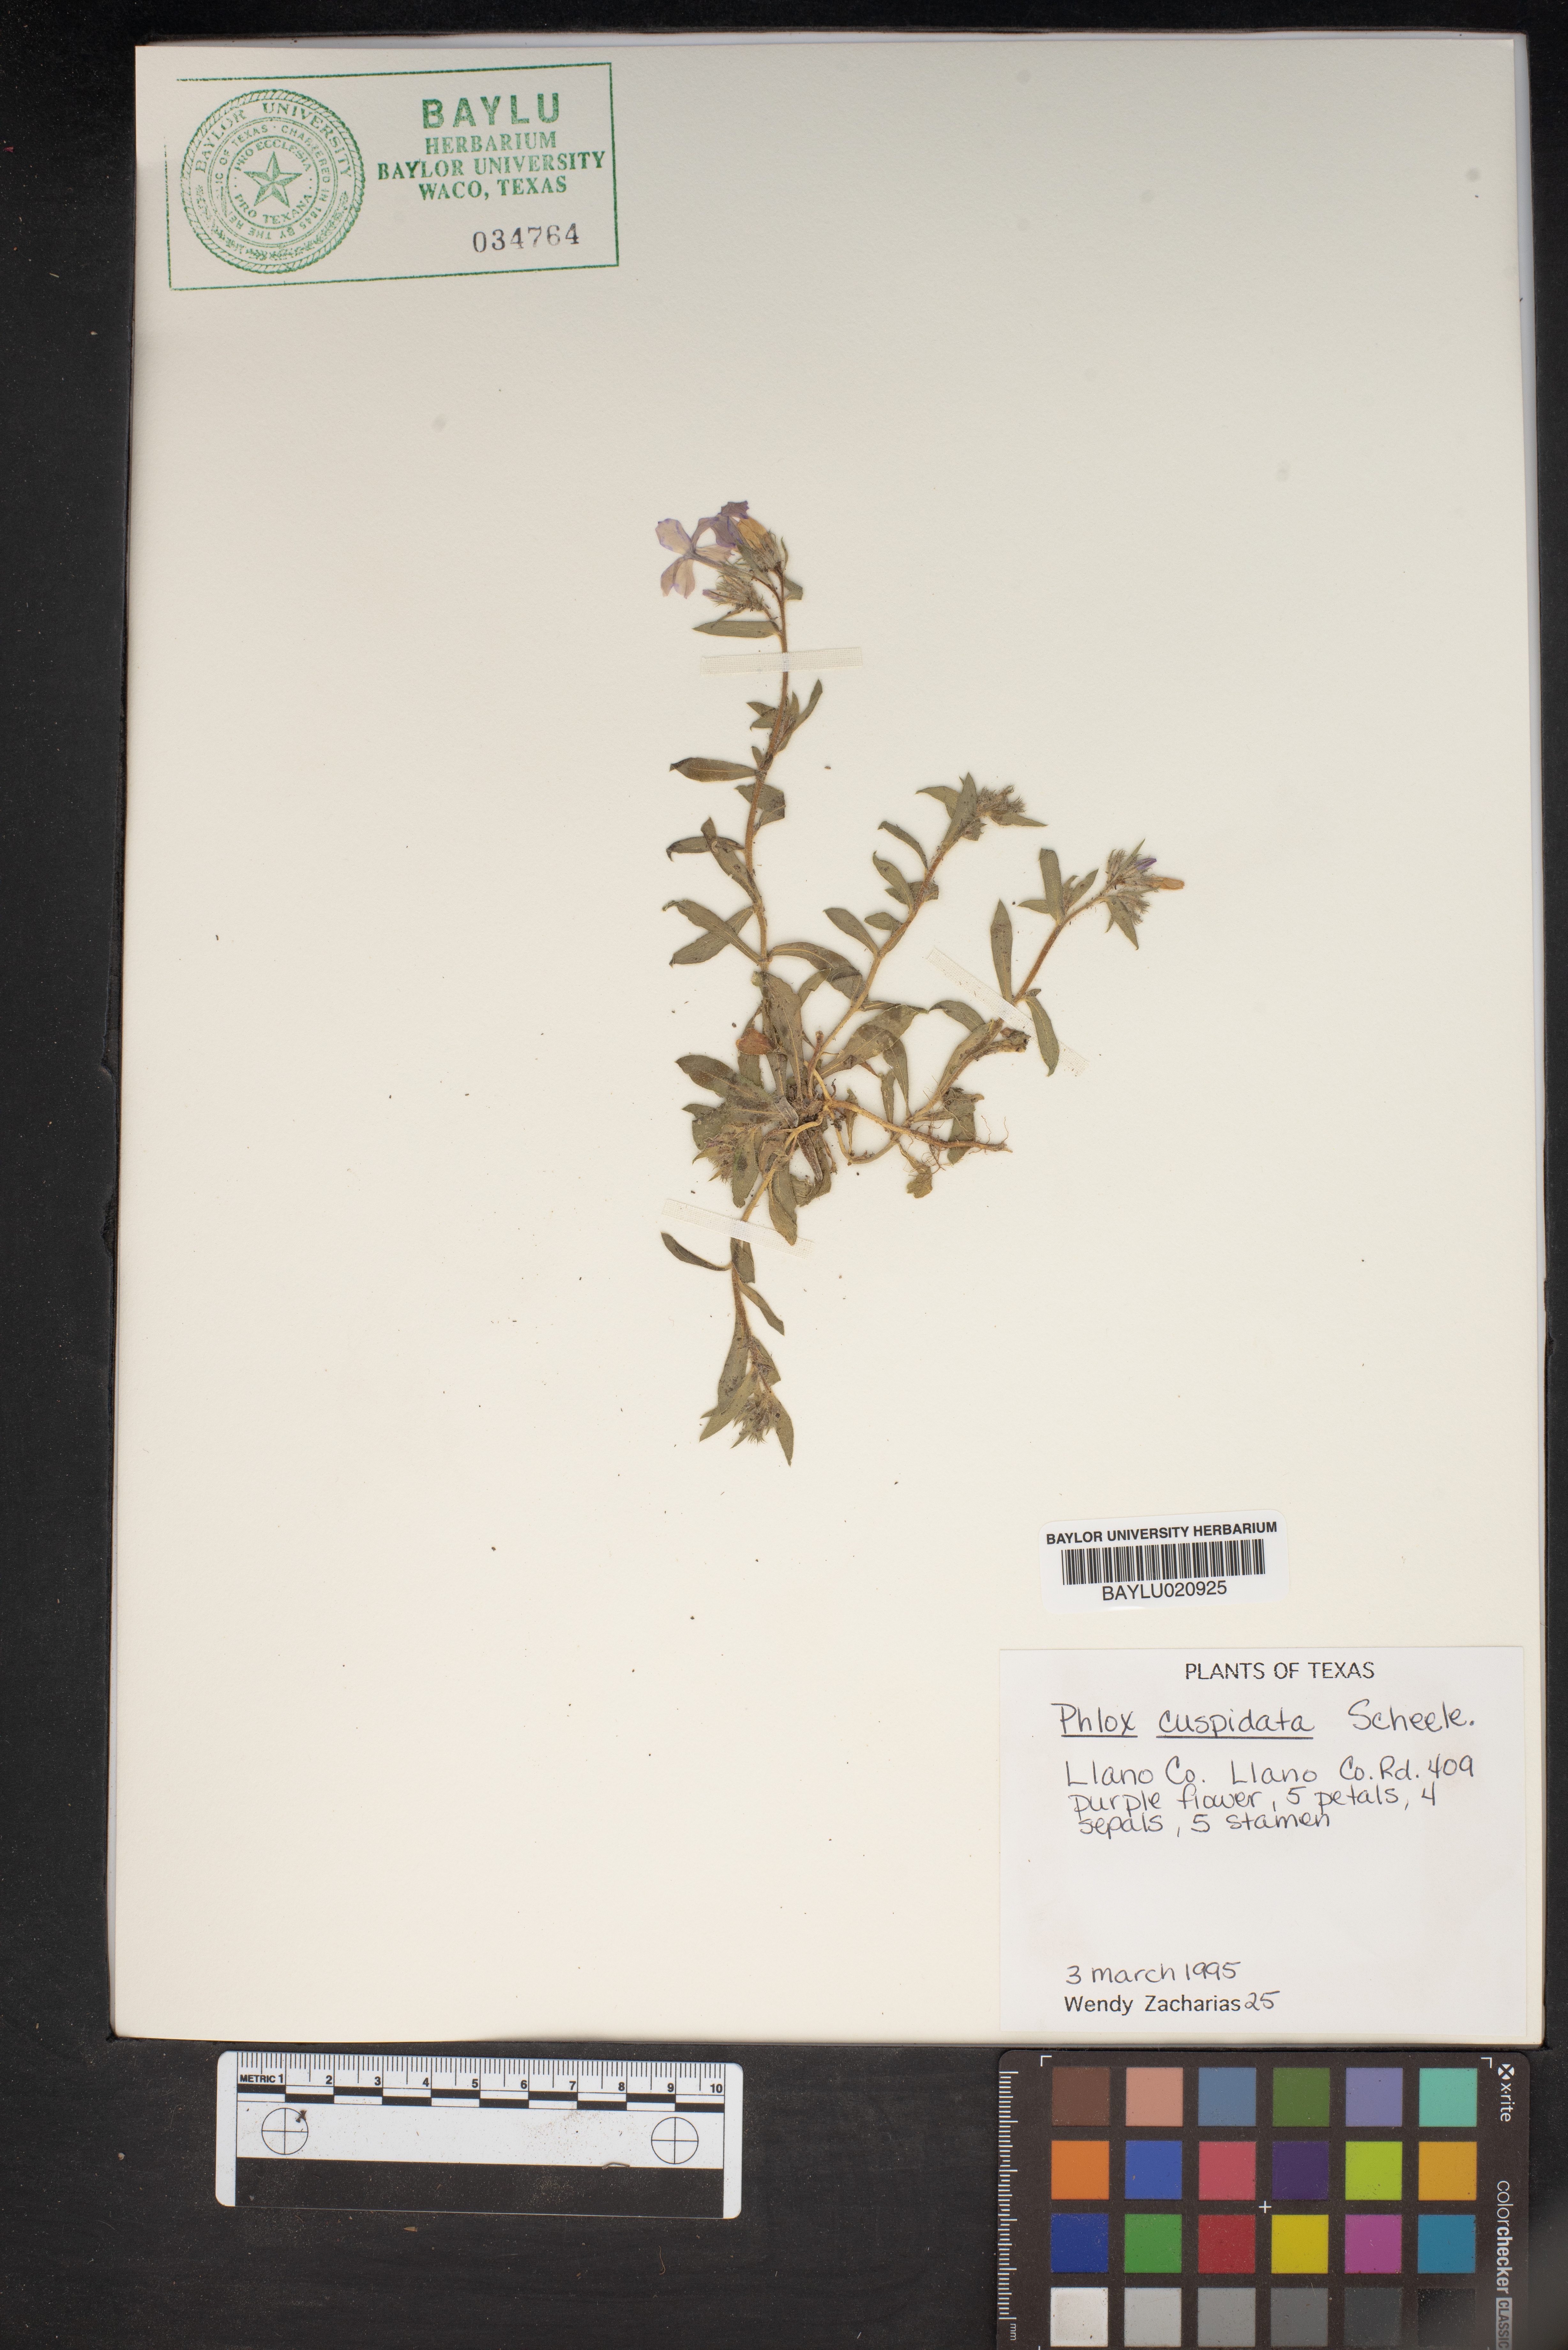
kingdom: Plantae
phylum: Tracheophyta
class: Magnoliopsida
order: Ericales
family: Polemoniaceae
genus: Phlox
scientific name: Phlox cuspidata
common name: Pointed phlox
